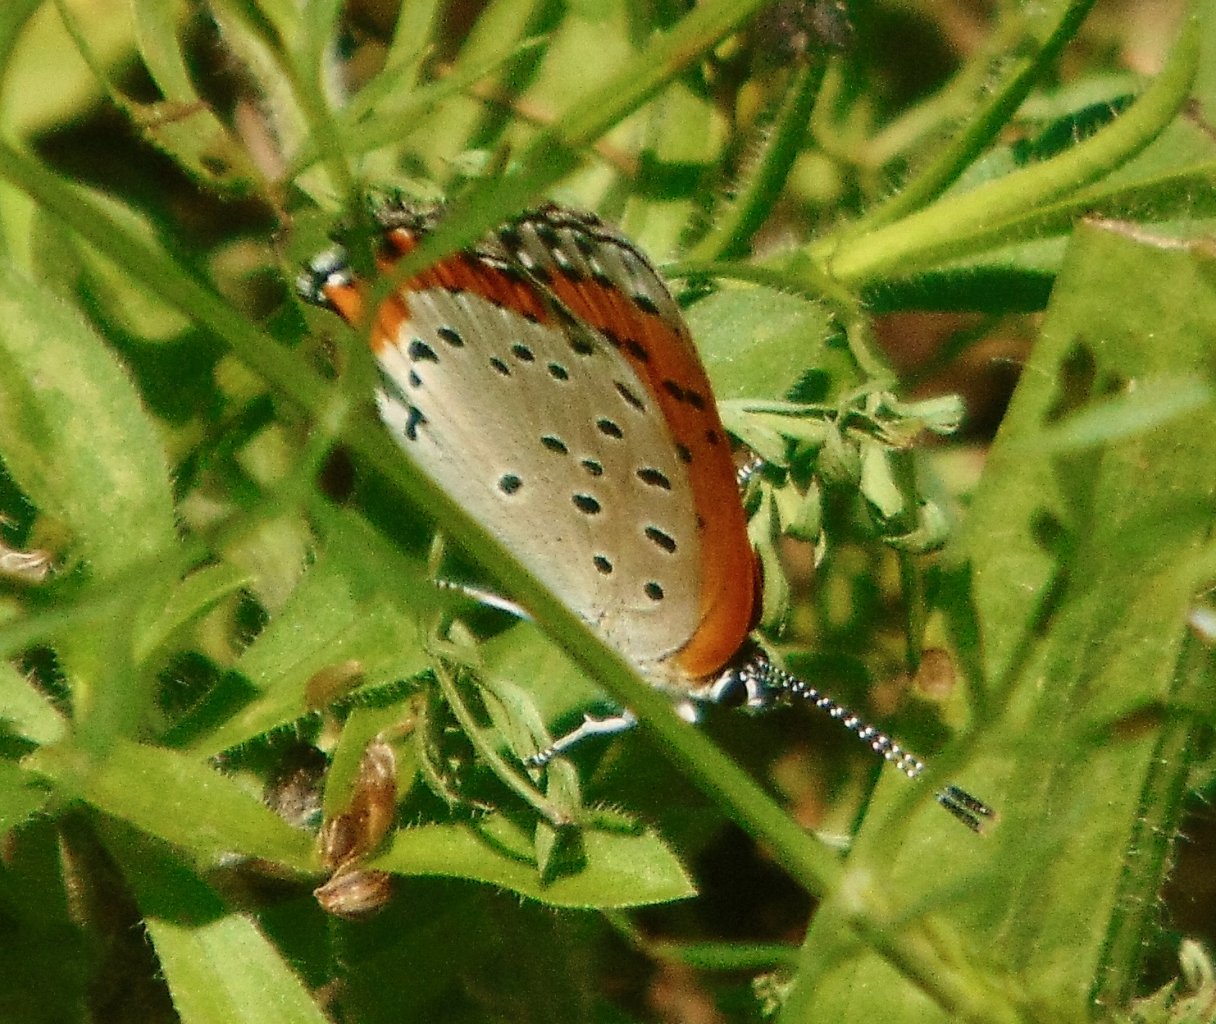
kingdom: Animalia
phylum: Arthropoda
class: Insecta
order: Lepidoptera
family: Sesiidae
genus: Sesia
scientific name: Sesia Lycaena hyllus
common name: Bronze Copper
